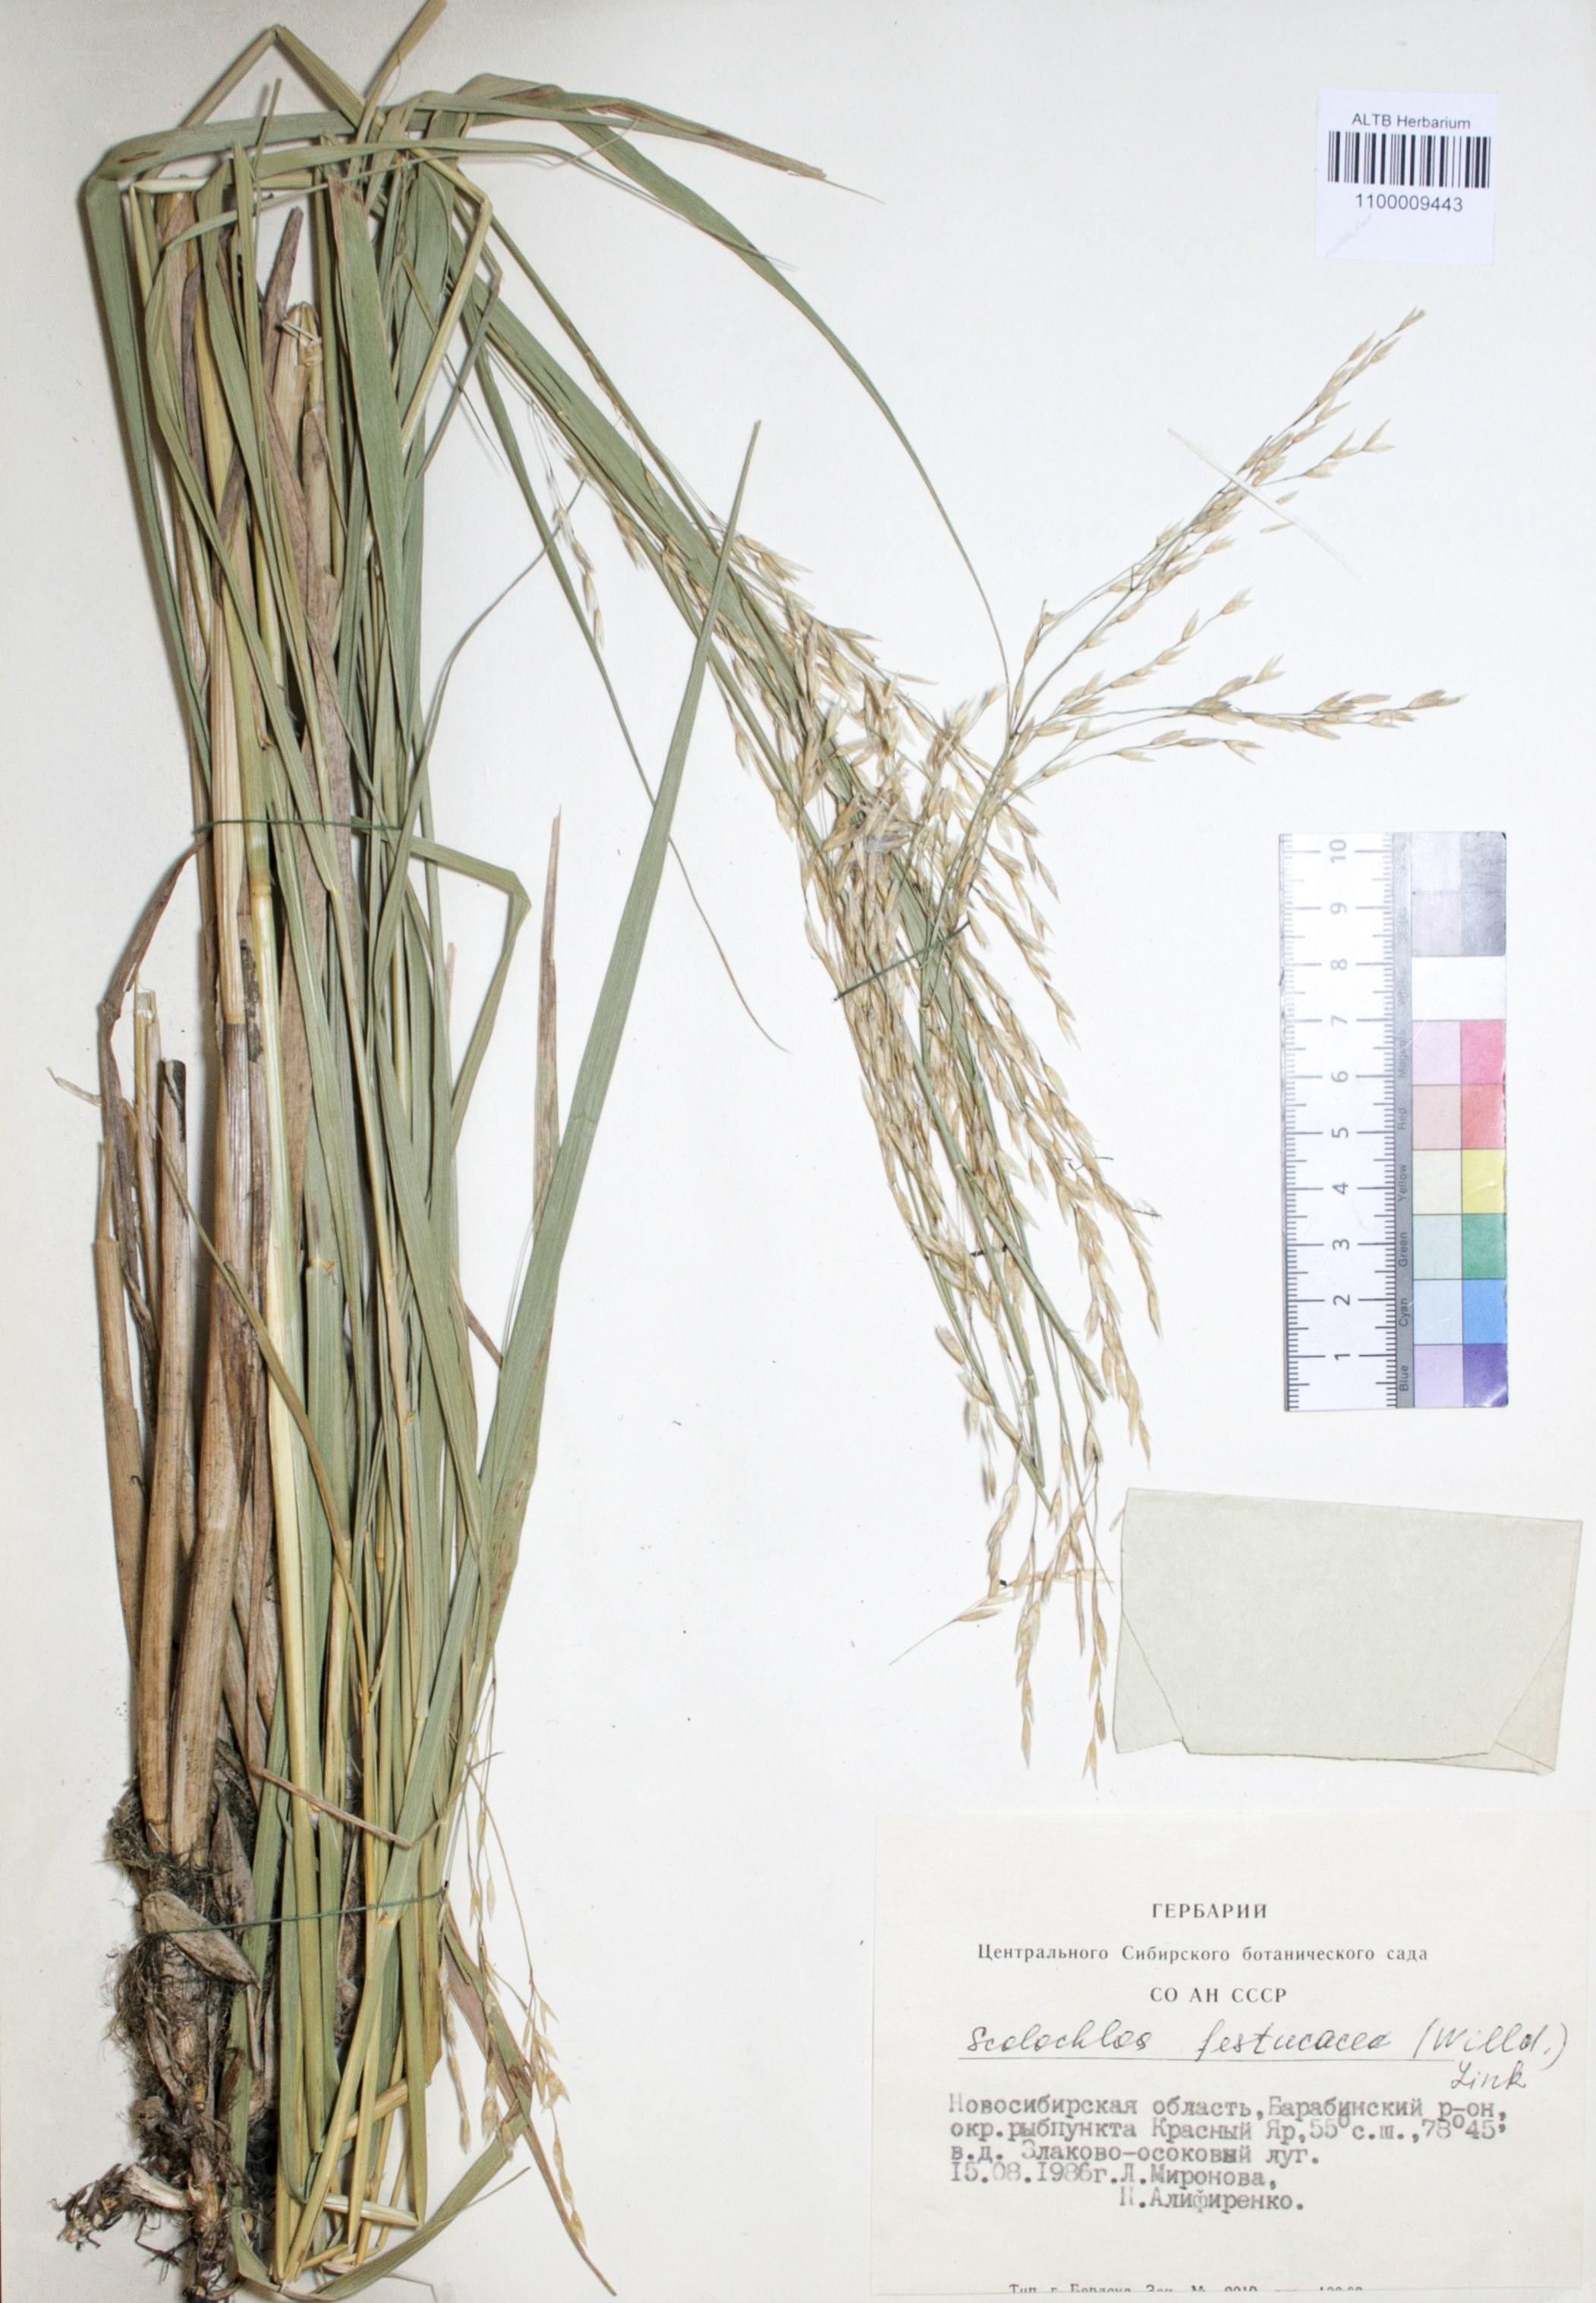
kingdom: Plantae
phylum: Tracheophyta
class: Liliopsida
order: Poales
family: Poaceae
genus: Scolochloa
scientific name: Scolochloa festucacea
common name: Common rivergrass
